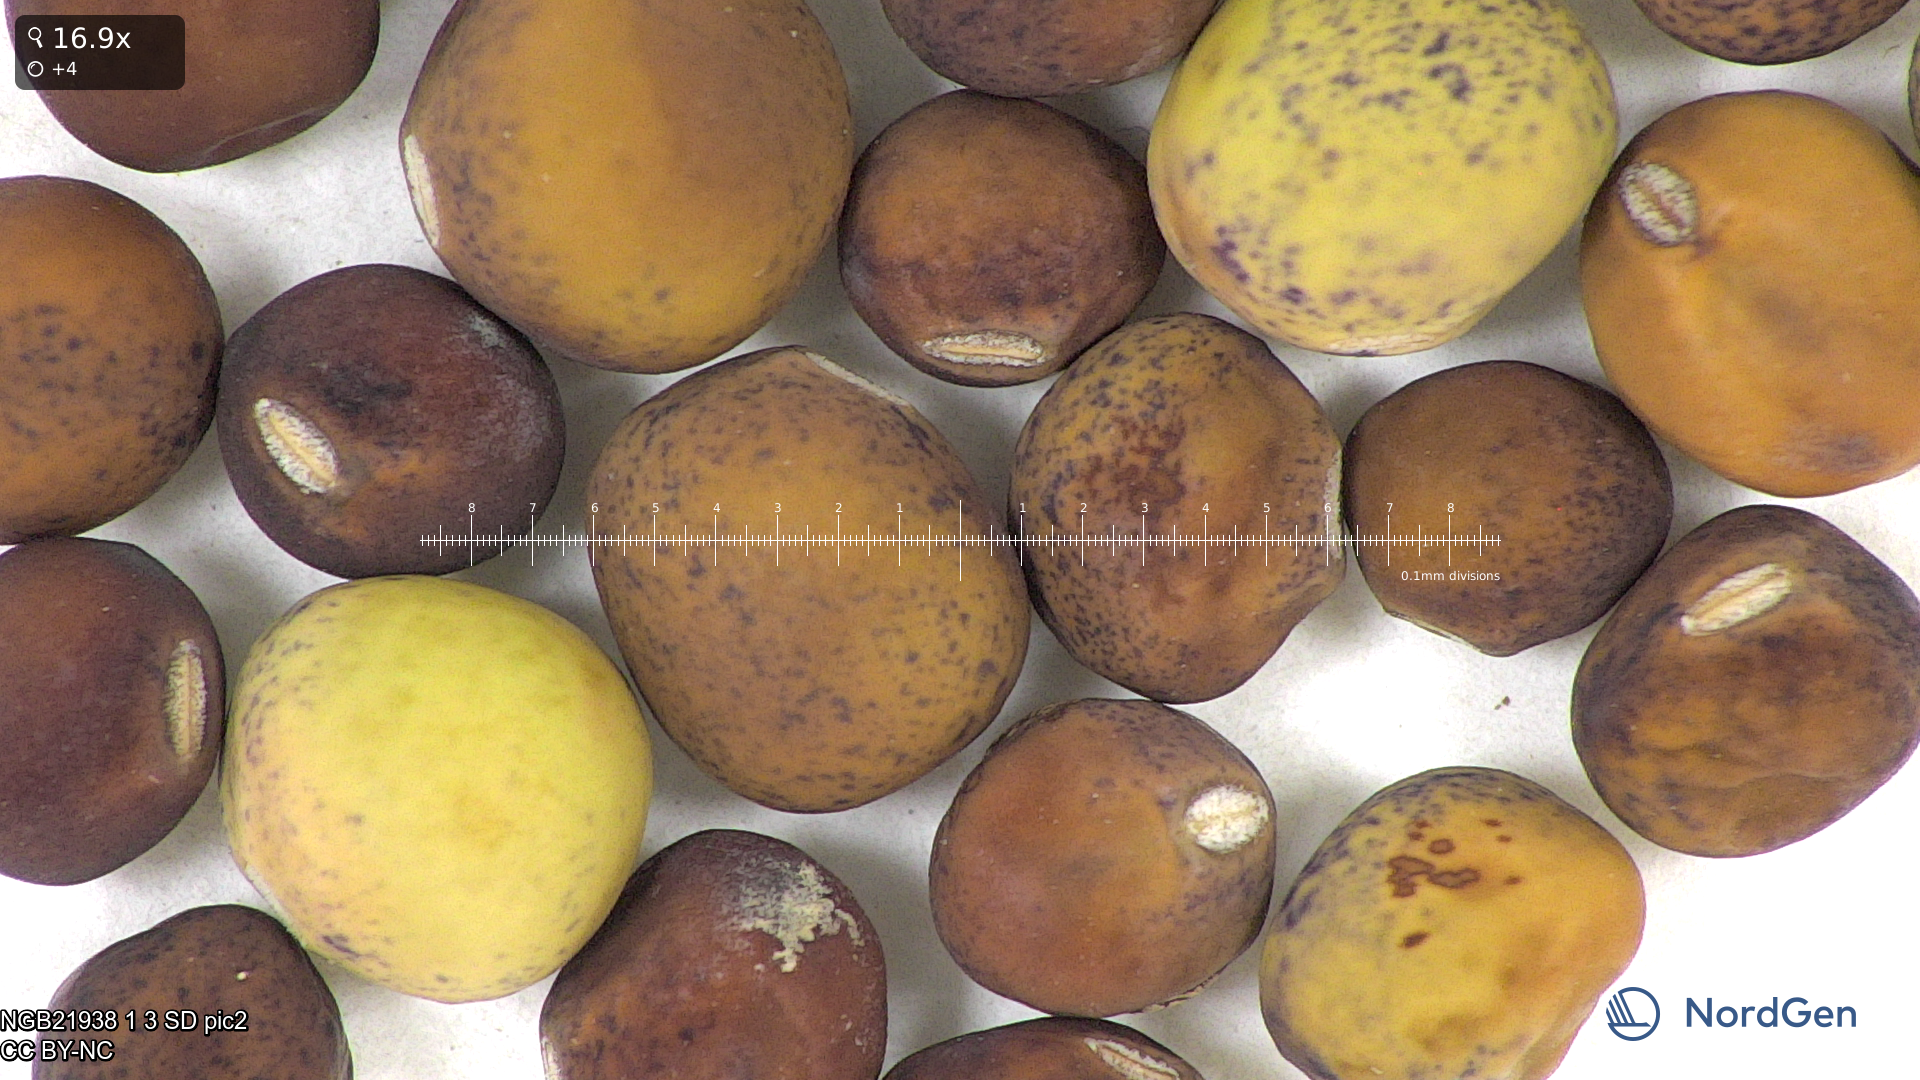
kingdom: Plantae
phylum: Tracheophyta
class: Magnoliopsida
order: Fabales
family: Fabaceae
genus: Lathyrus
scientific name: Lathyrus oleraceus
